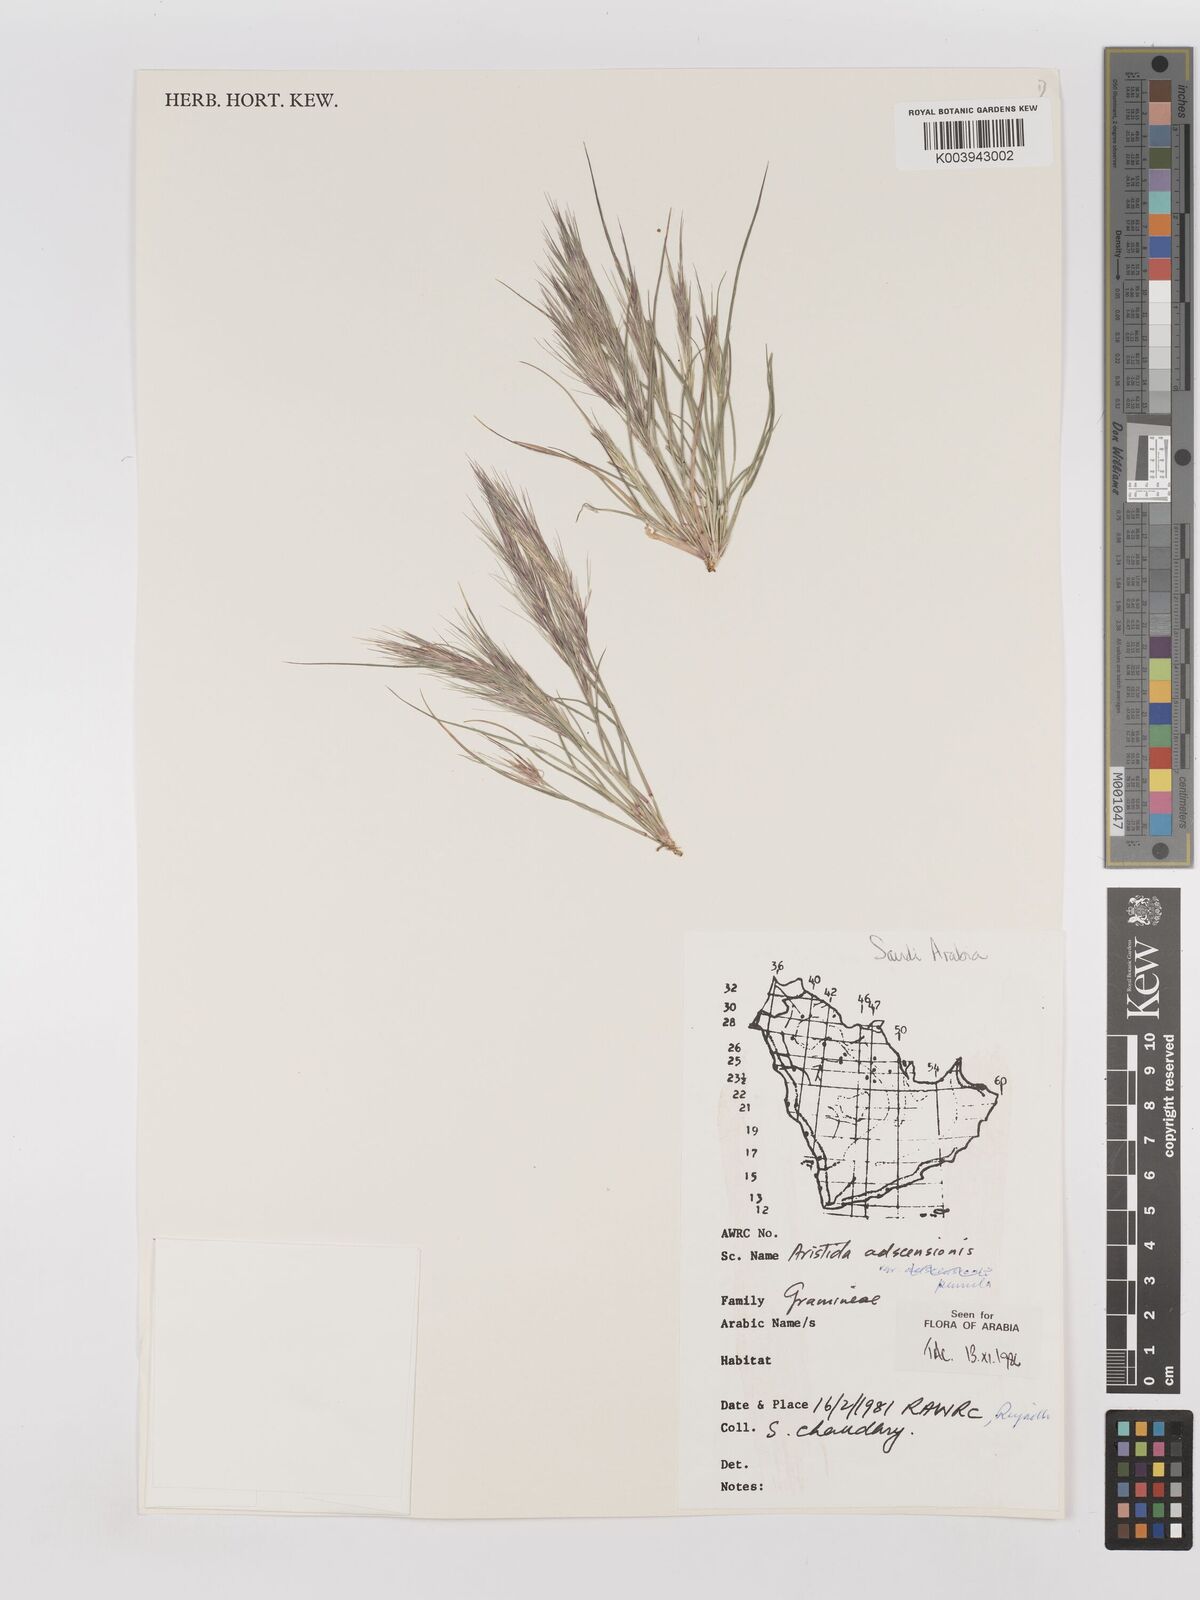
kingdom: Plantae
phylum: Tracheophyta
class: Liliopsida
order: Poales
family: Poaceae
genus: Aristida
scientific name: Aristida adscensionis
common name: Sixweeks threeawn
